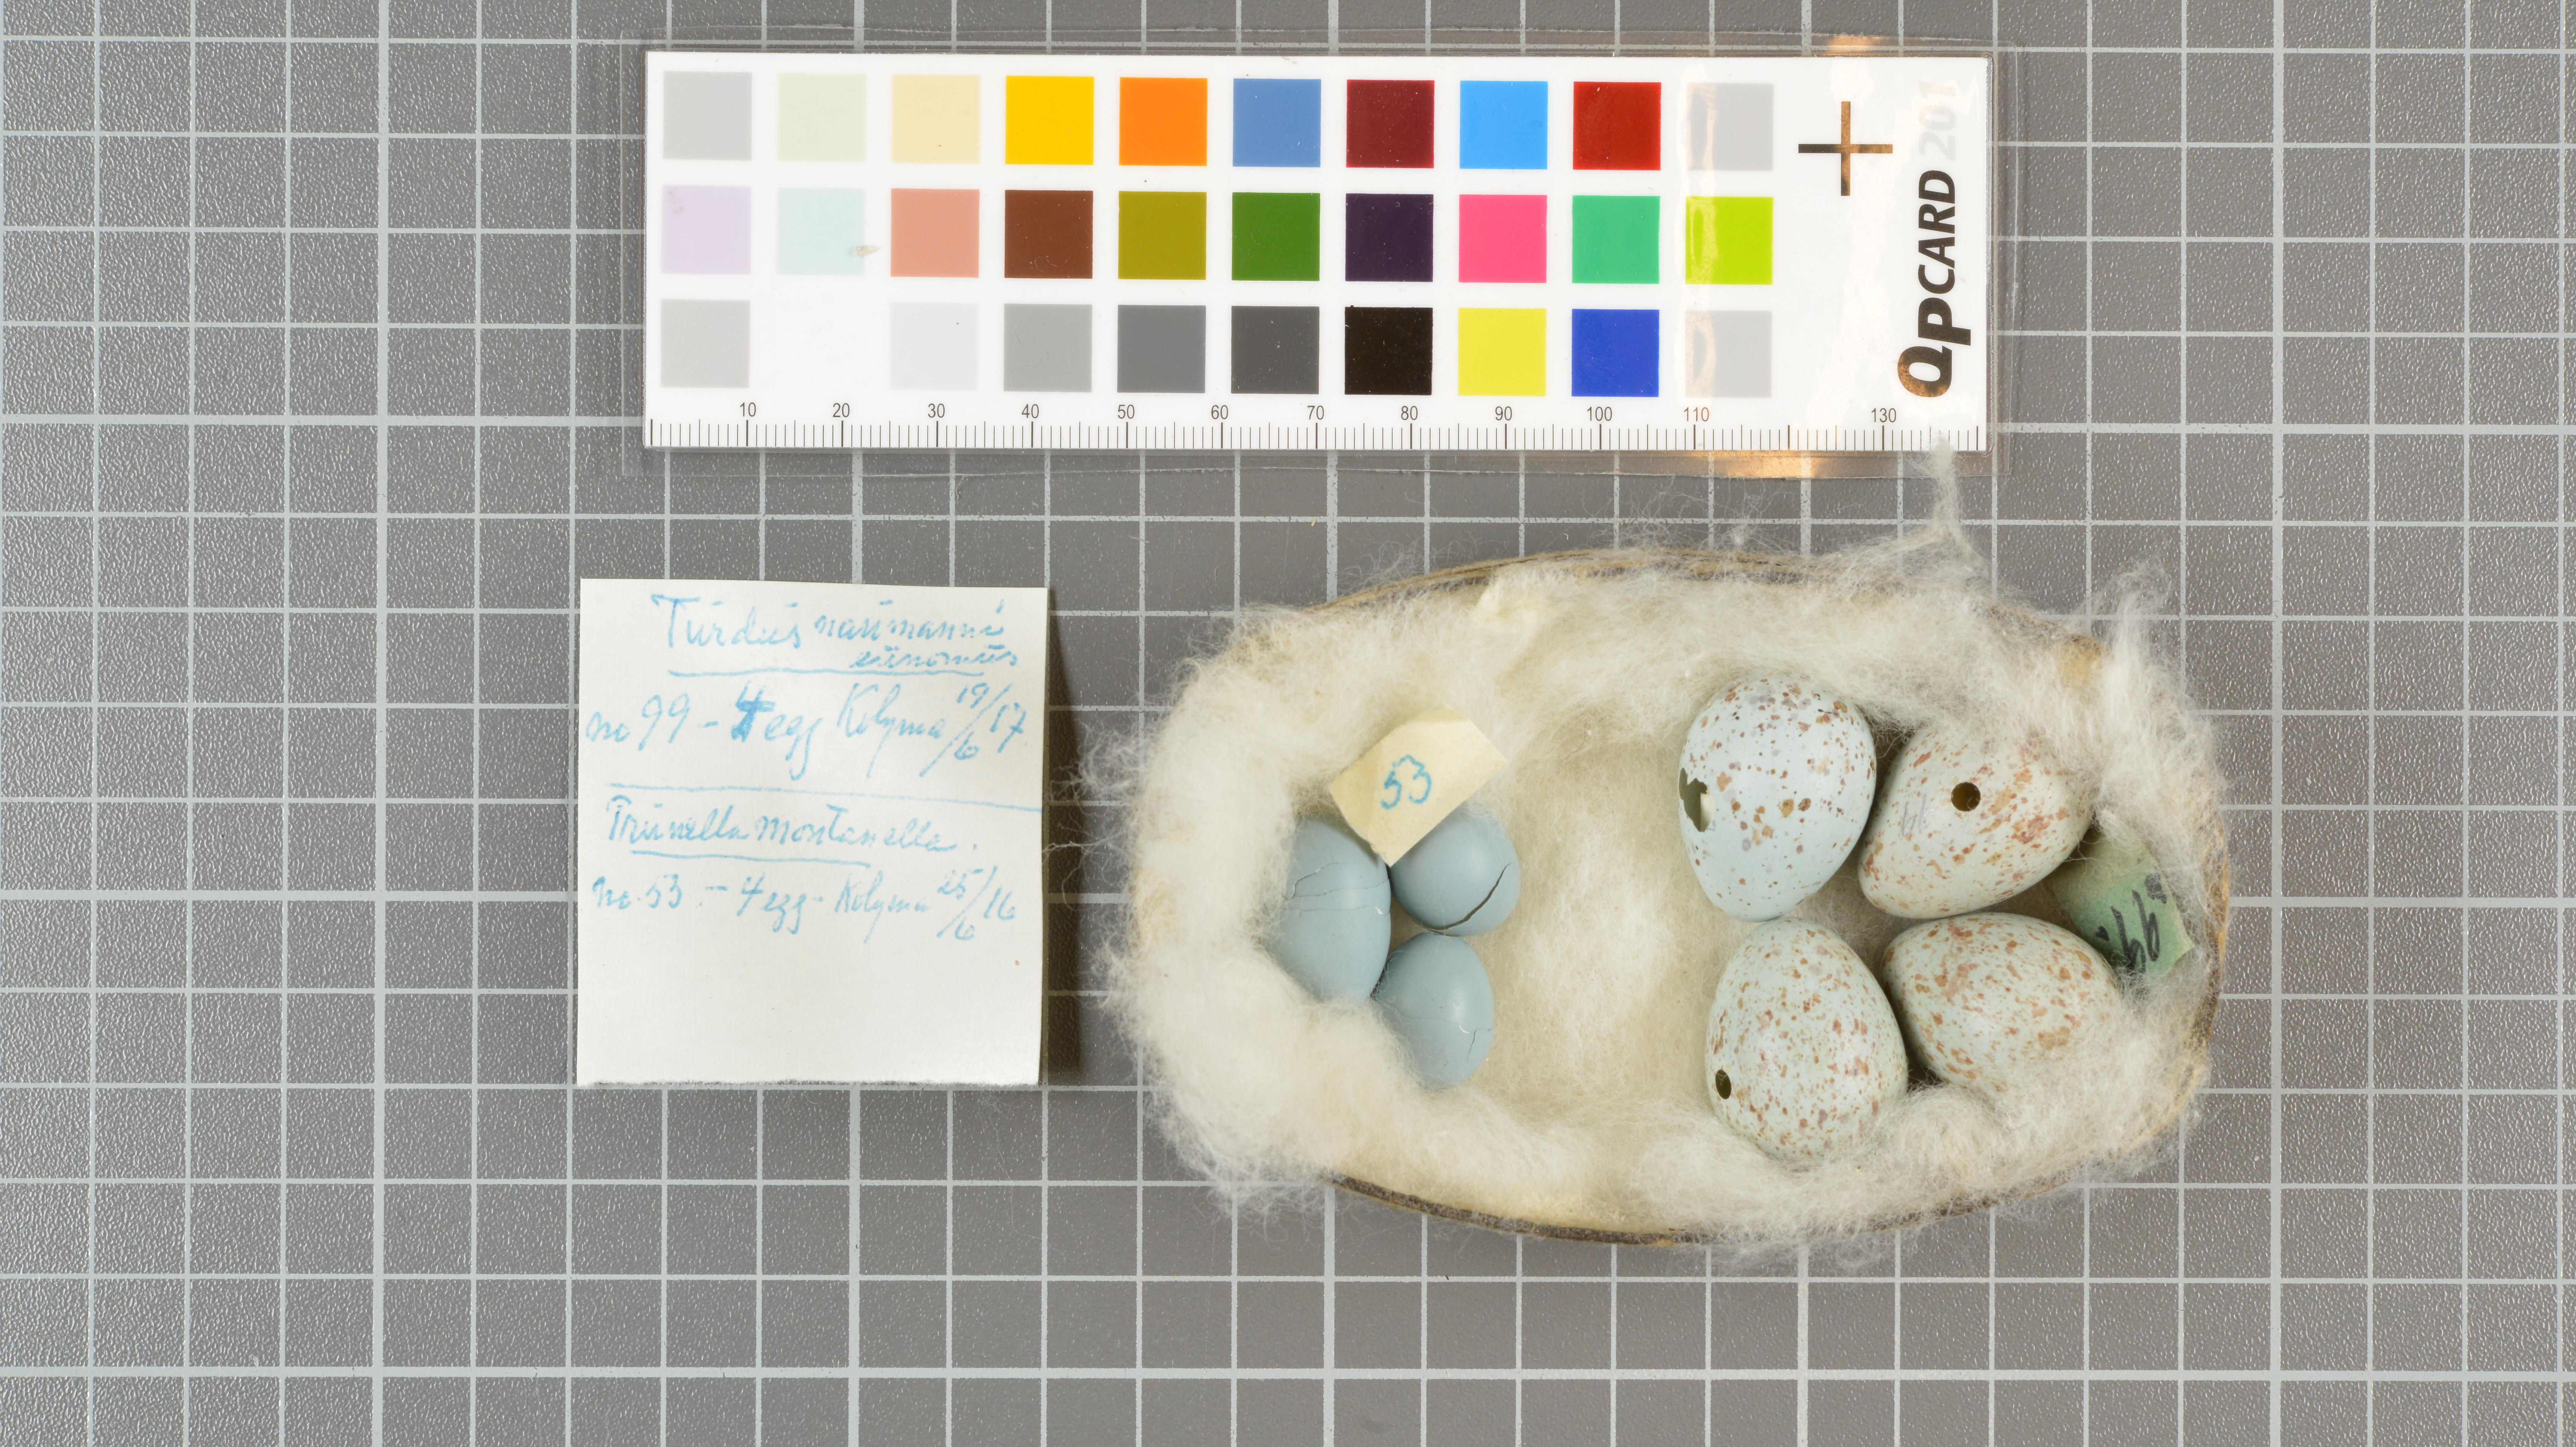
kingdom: Animalia
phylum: Chordata
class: Aves
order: Passeriformes
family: Prunellidae
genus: Prunella
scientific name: Prunella montanella
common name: Siberian accentor
